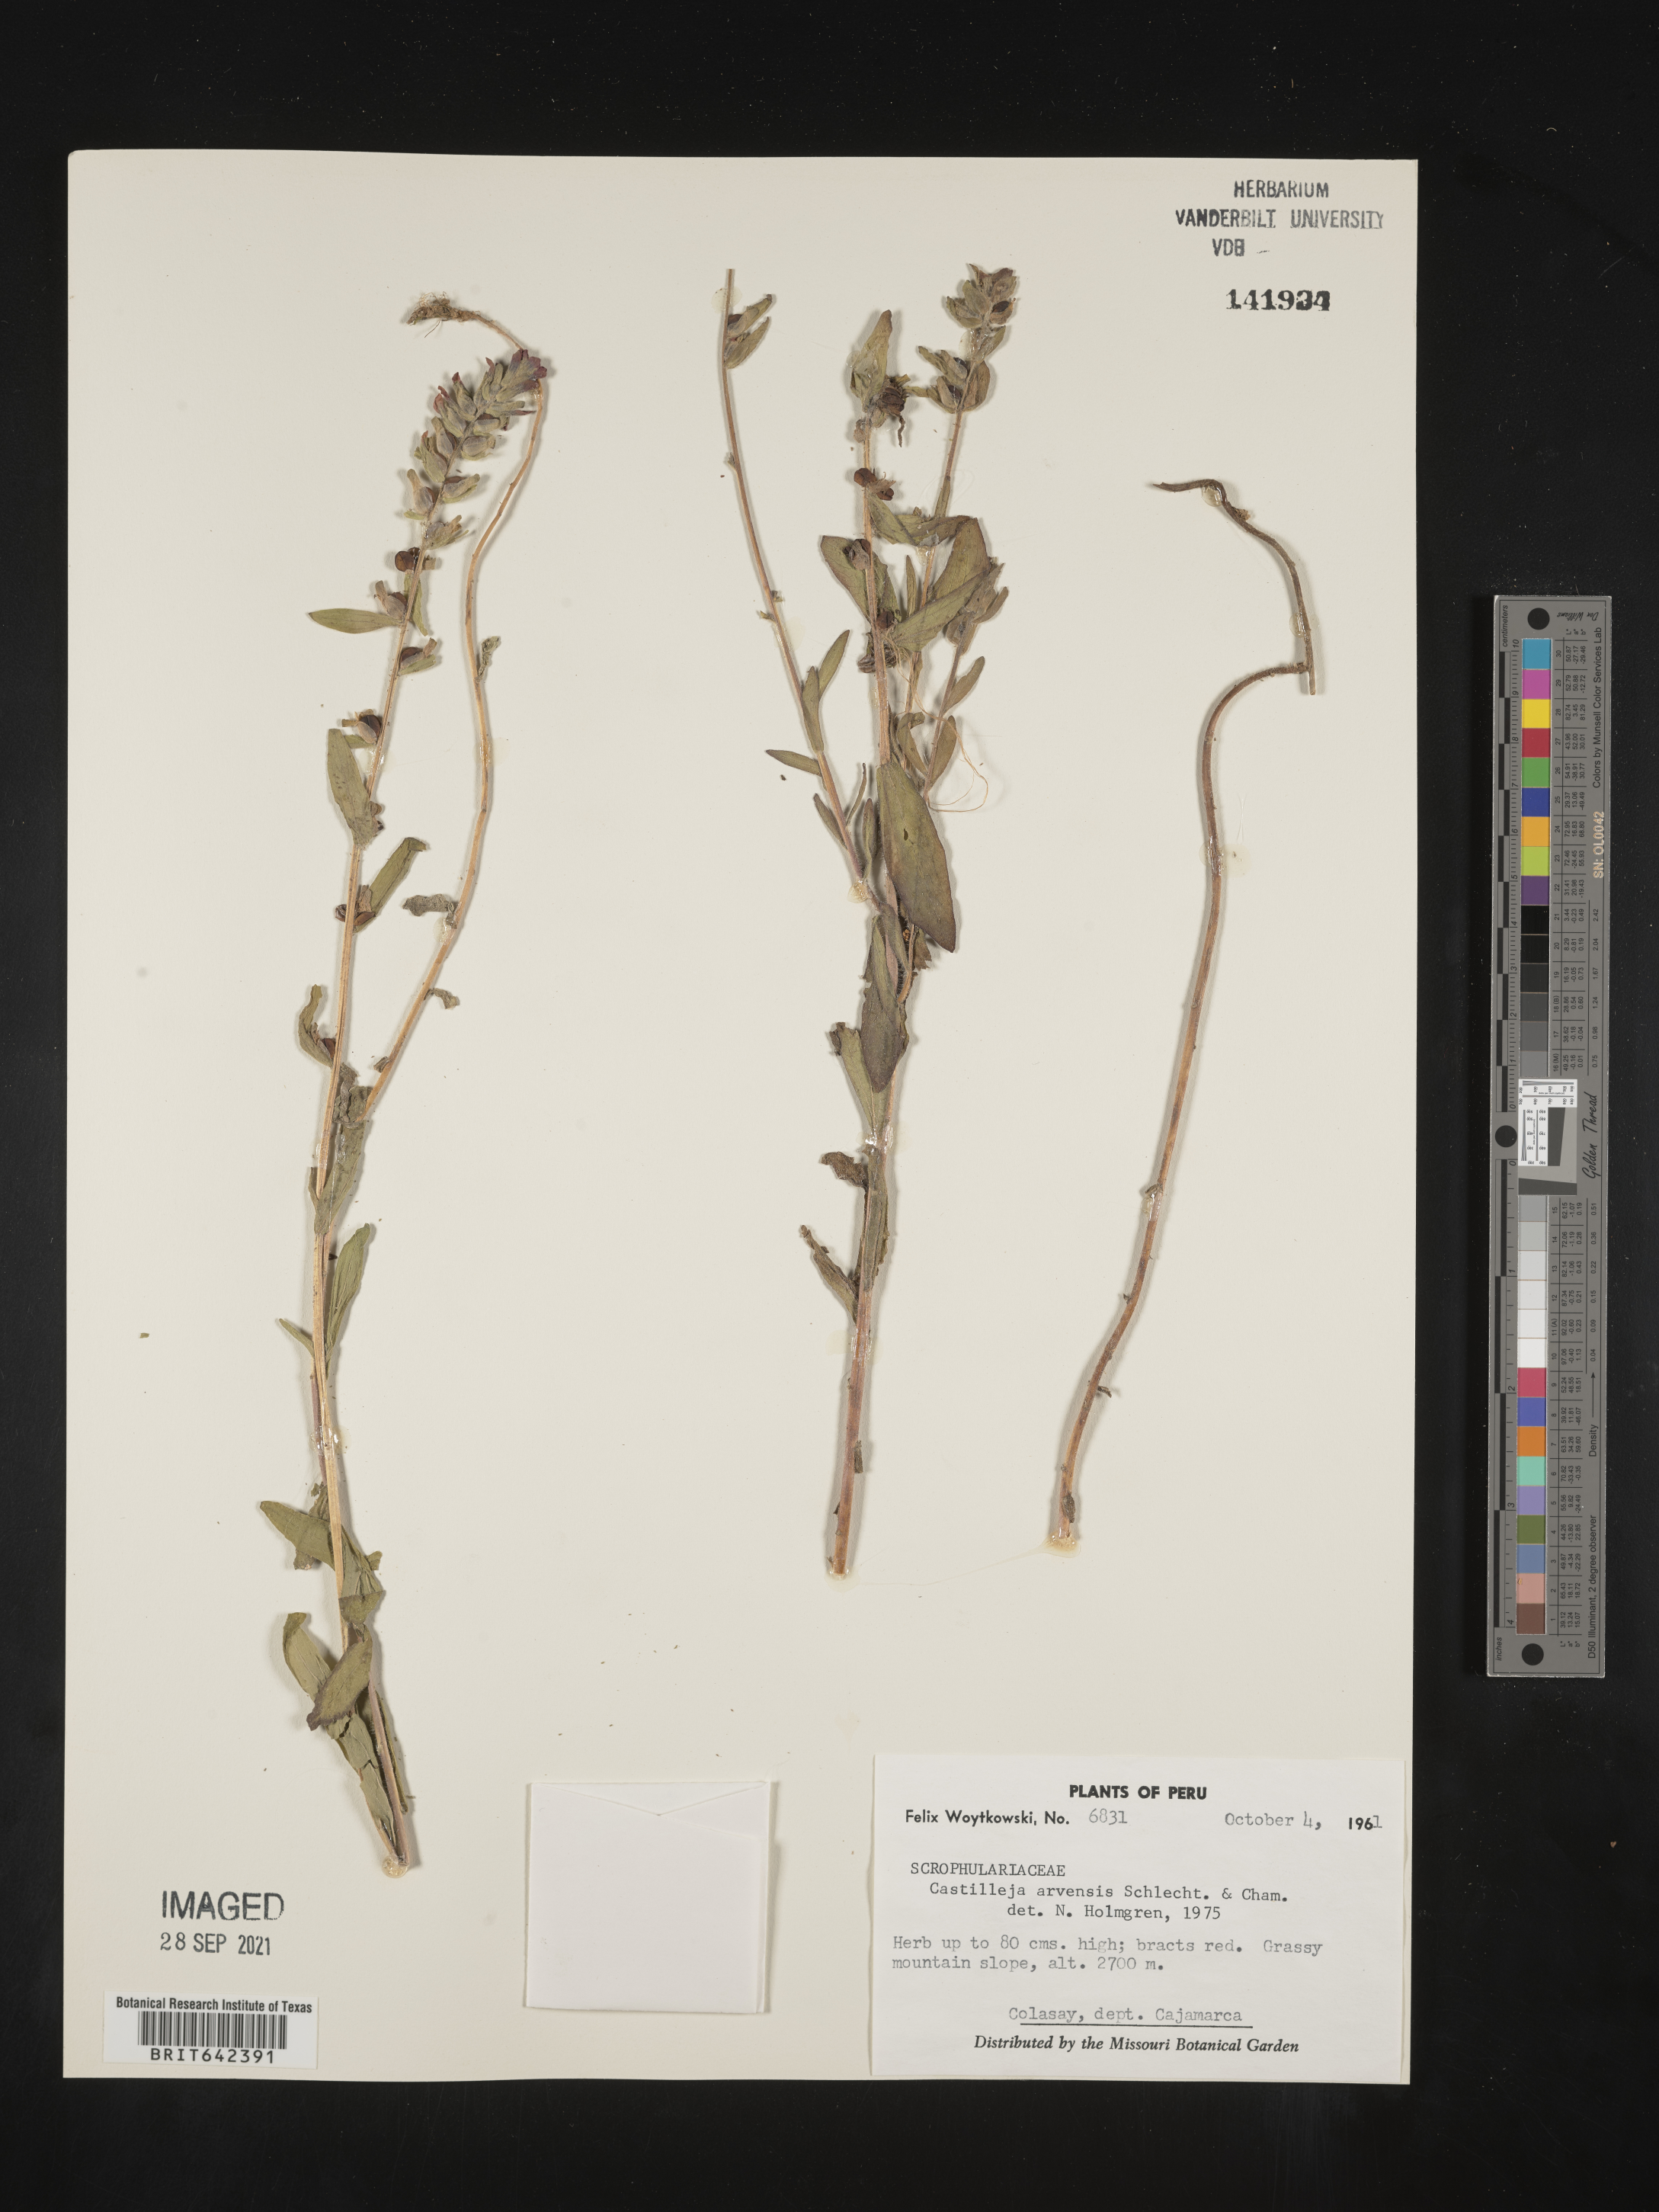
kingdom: Plantae
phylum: Tracheophyta
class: Magnoliopsida
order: Lamiales
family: Orobanchaceae
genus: Castilleja
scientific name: Castilleja
